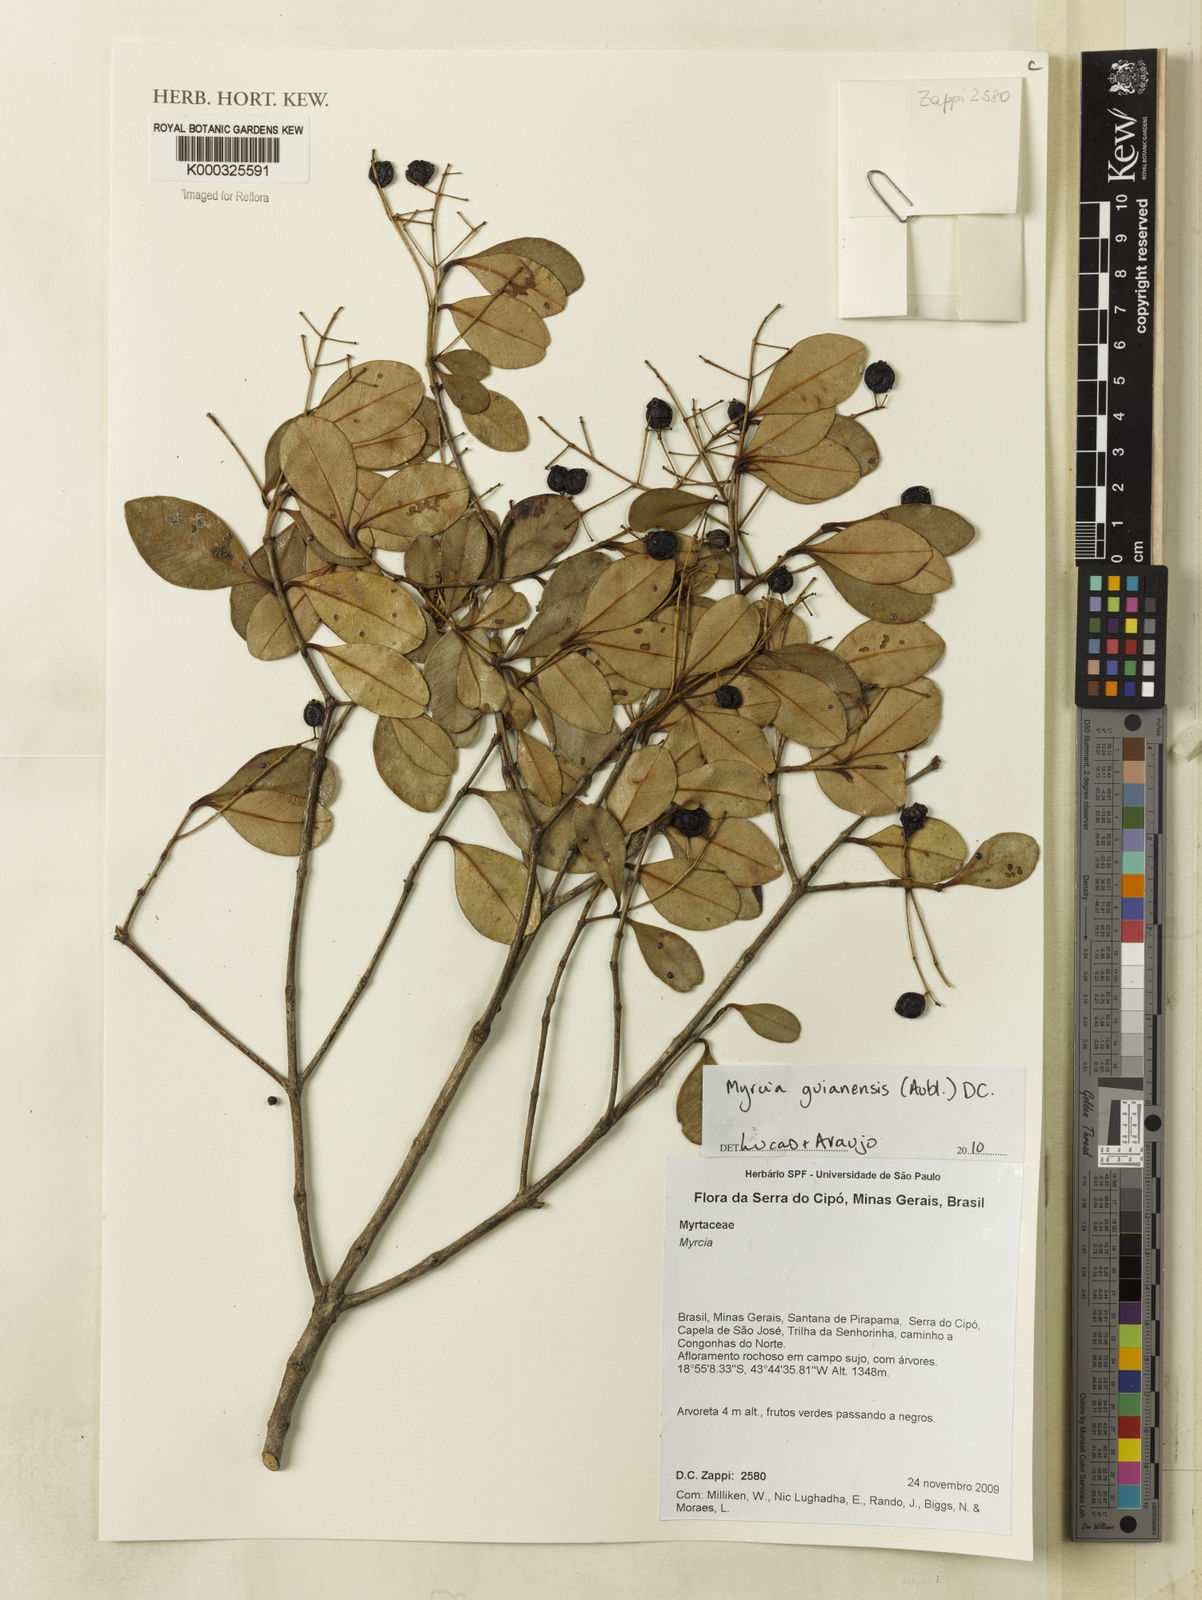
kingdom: Plantae
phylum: Tracheophyta
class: Magnoliopsida
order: Myrtales
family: Myrtaceae
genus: Myrcia
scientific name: Myrcia obovata
